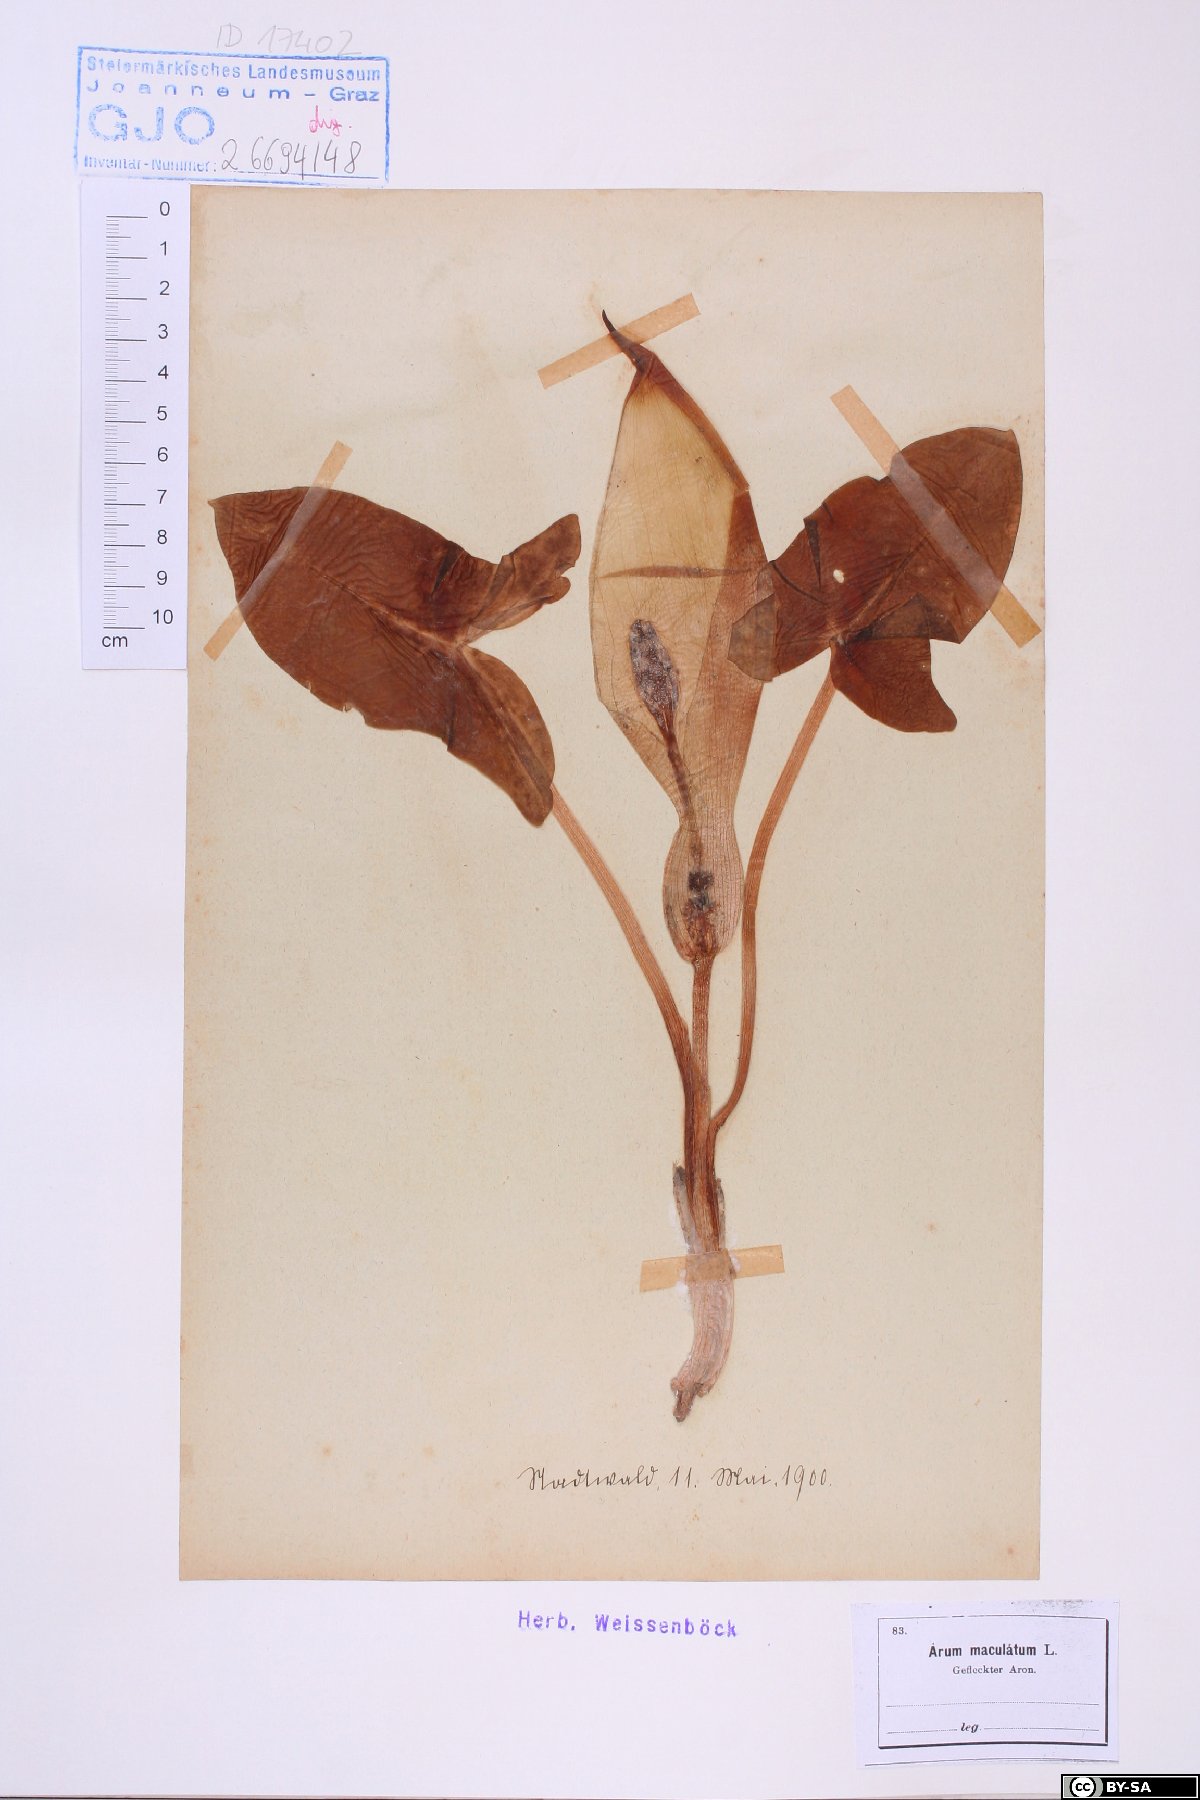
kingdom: Plantae
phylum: Tracheophyta
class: Liliopsida
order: Alismatales
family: Araceae
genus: Arum
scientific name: Arum maculatum
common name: Lords-and-ladies
